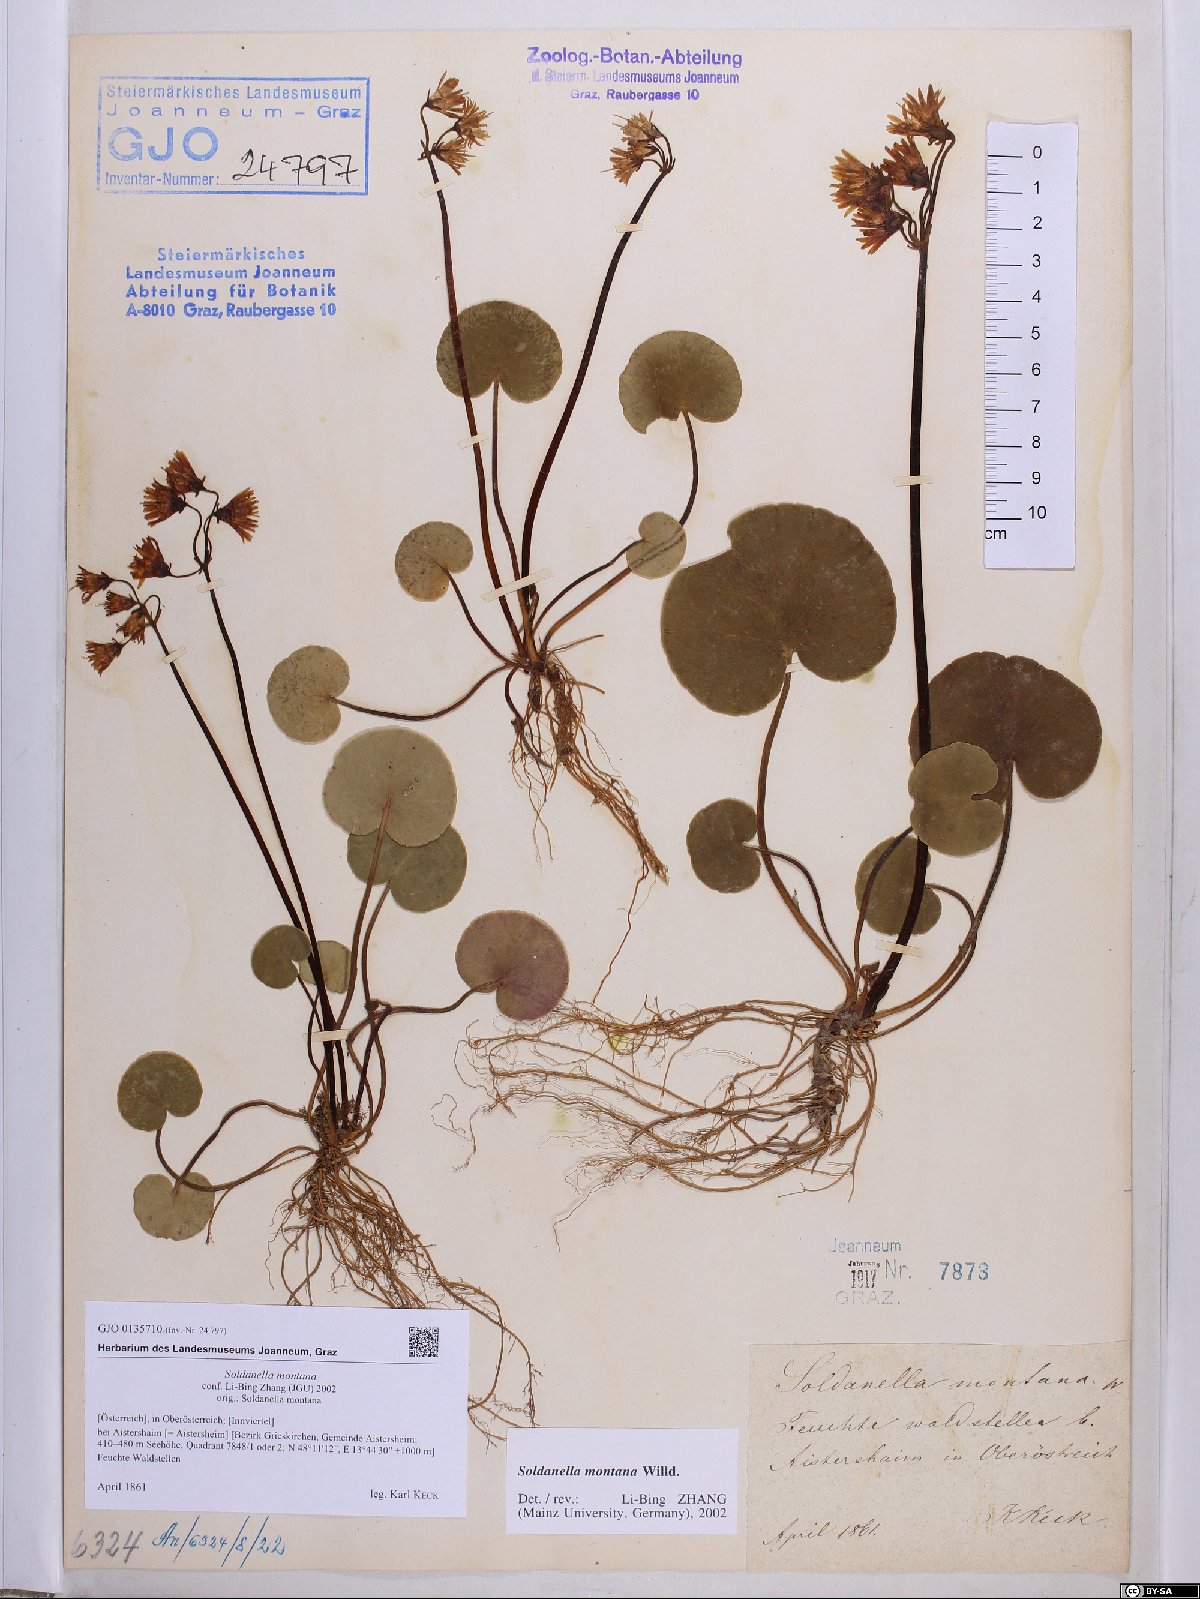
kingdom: Plantae
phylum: Tracheophyta
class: Magnoliopsida
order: Ericales
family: Primulaceae
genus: Soldanella
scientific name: Soldanella montana
